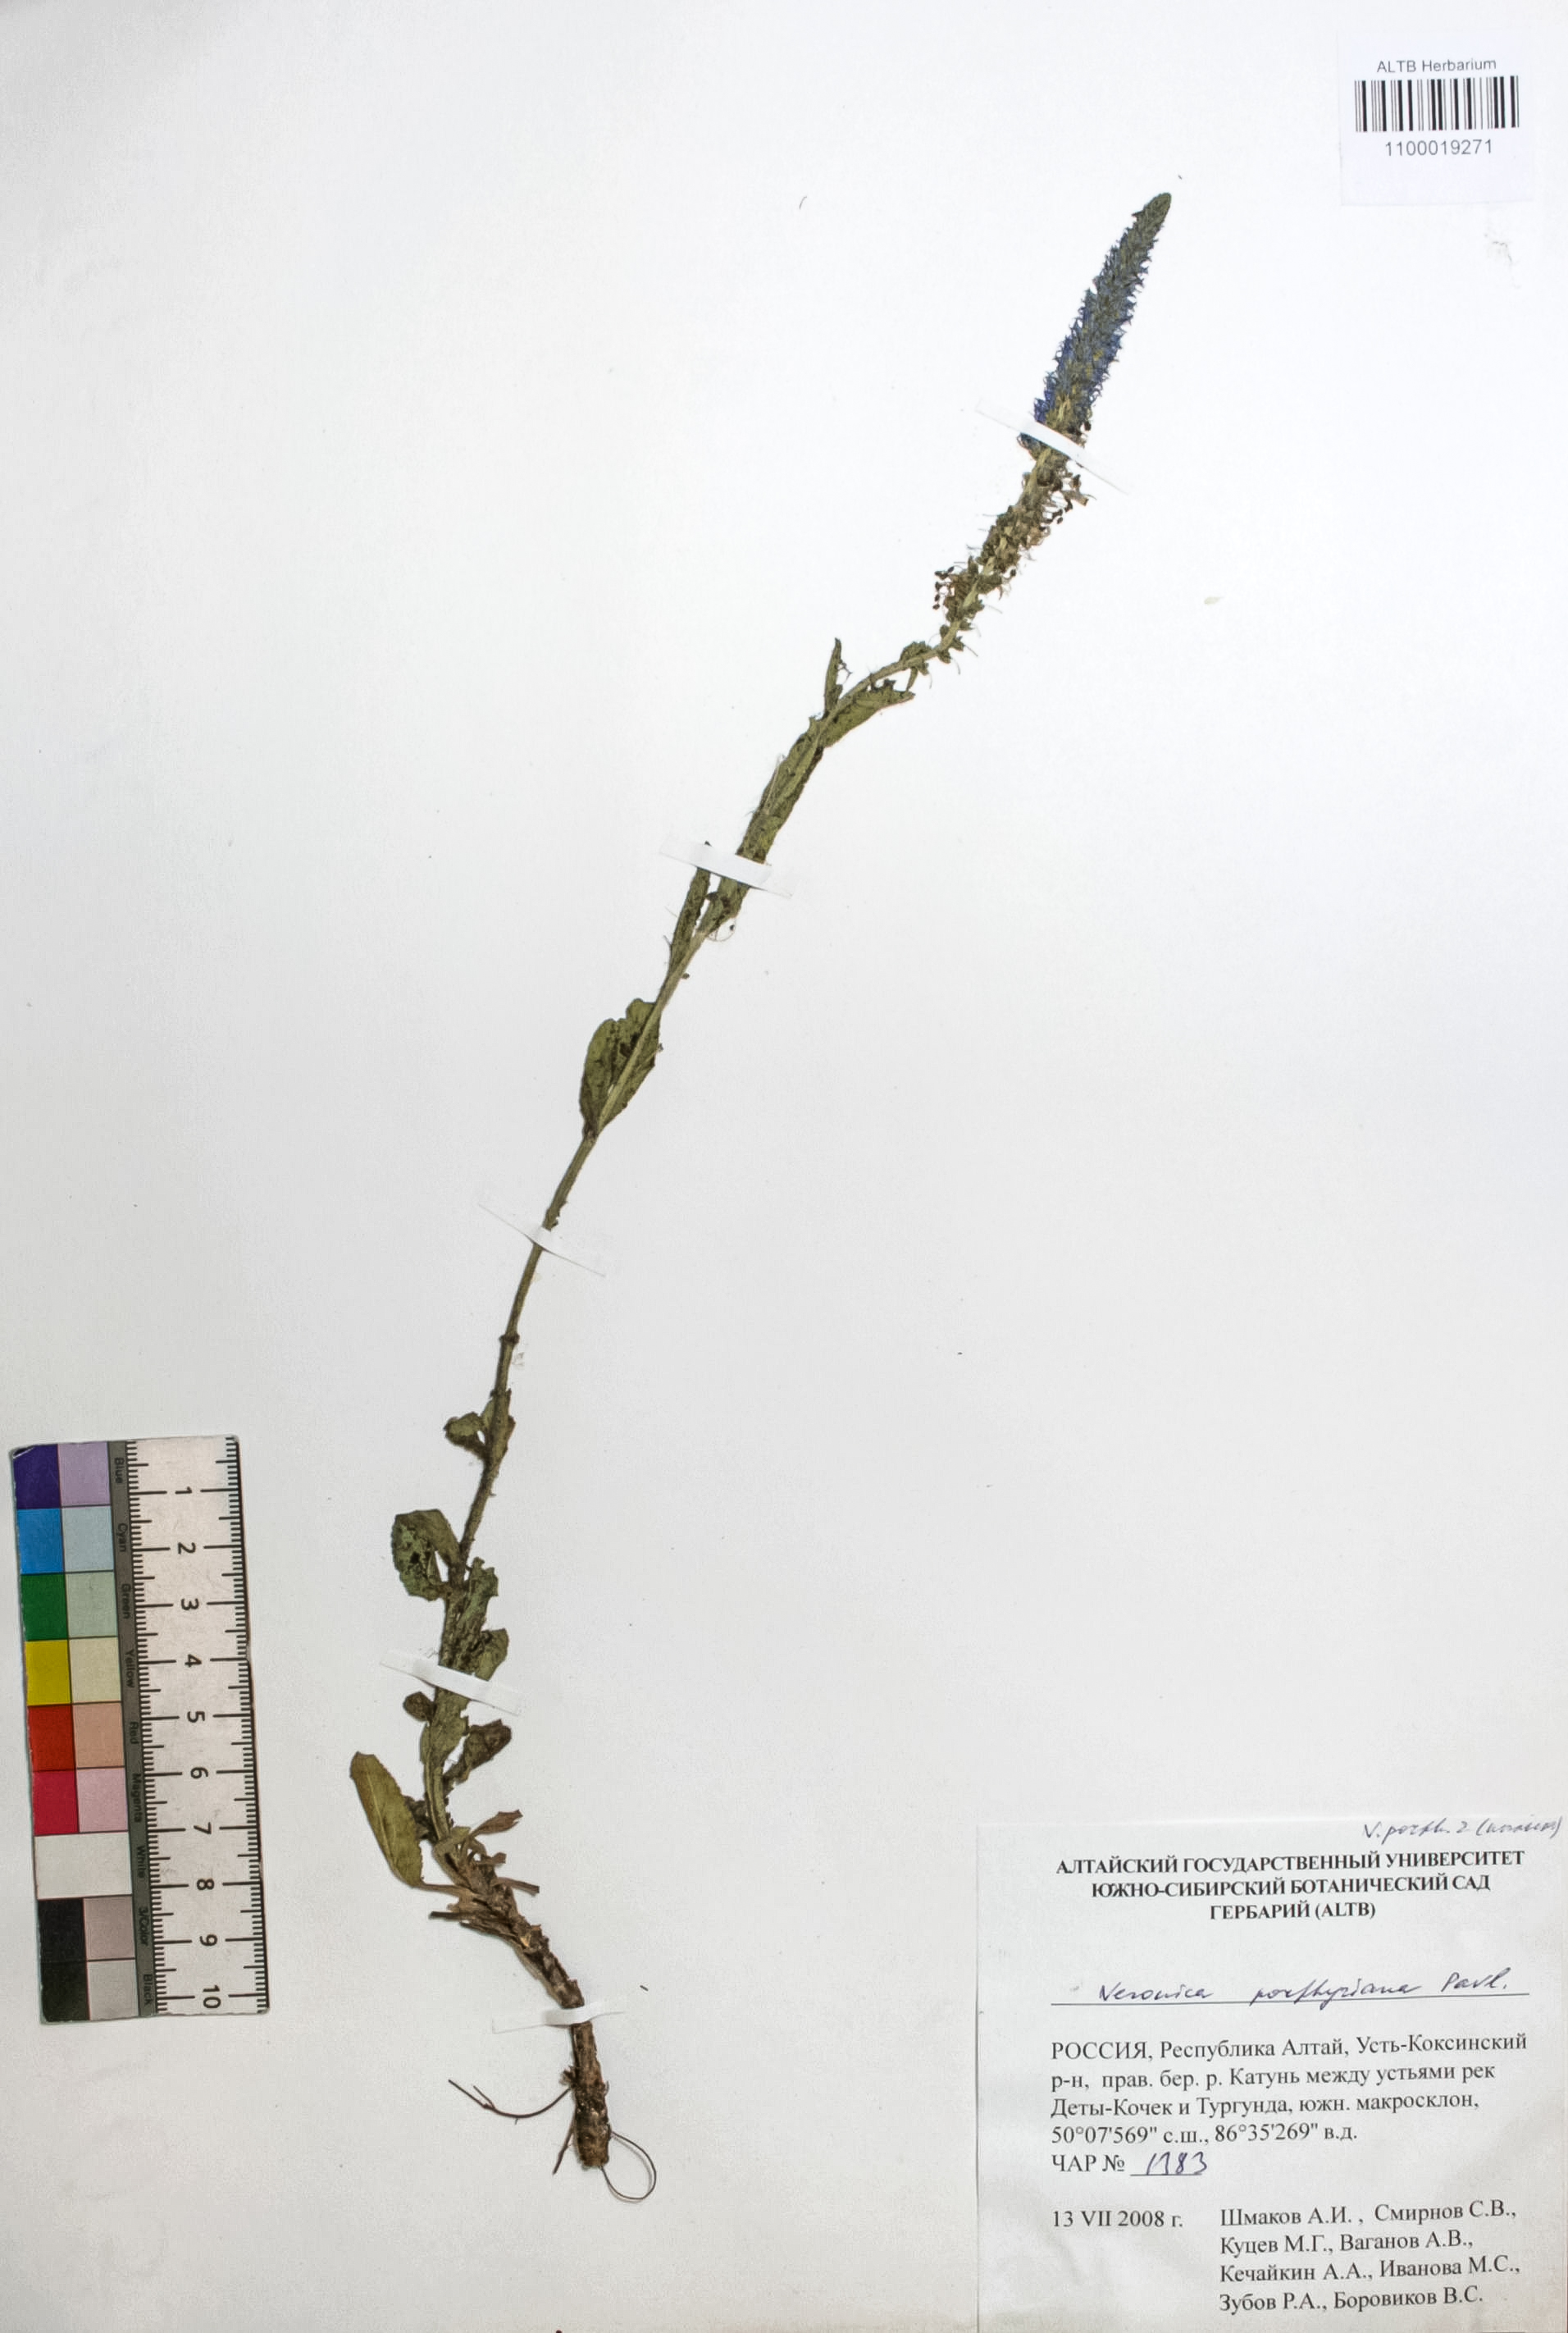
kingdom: Plantae
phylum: Tracheophyta
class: Magnoliopsida
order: Lamiales
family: Plantaginaceae
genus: Veronica
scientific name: Veronica porphyriana
